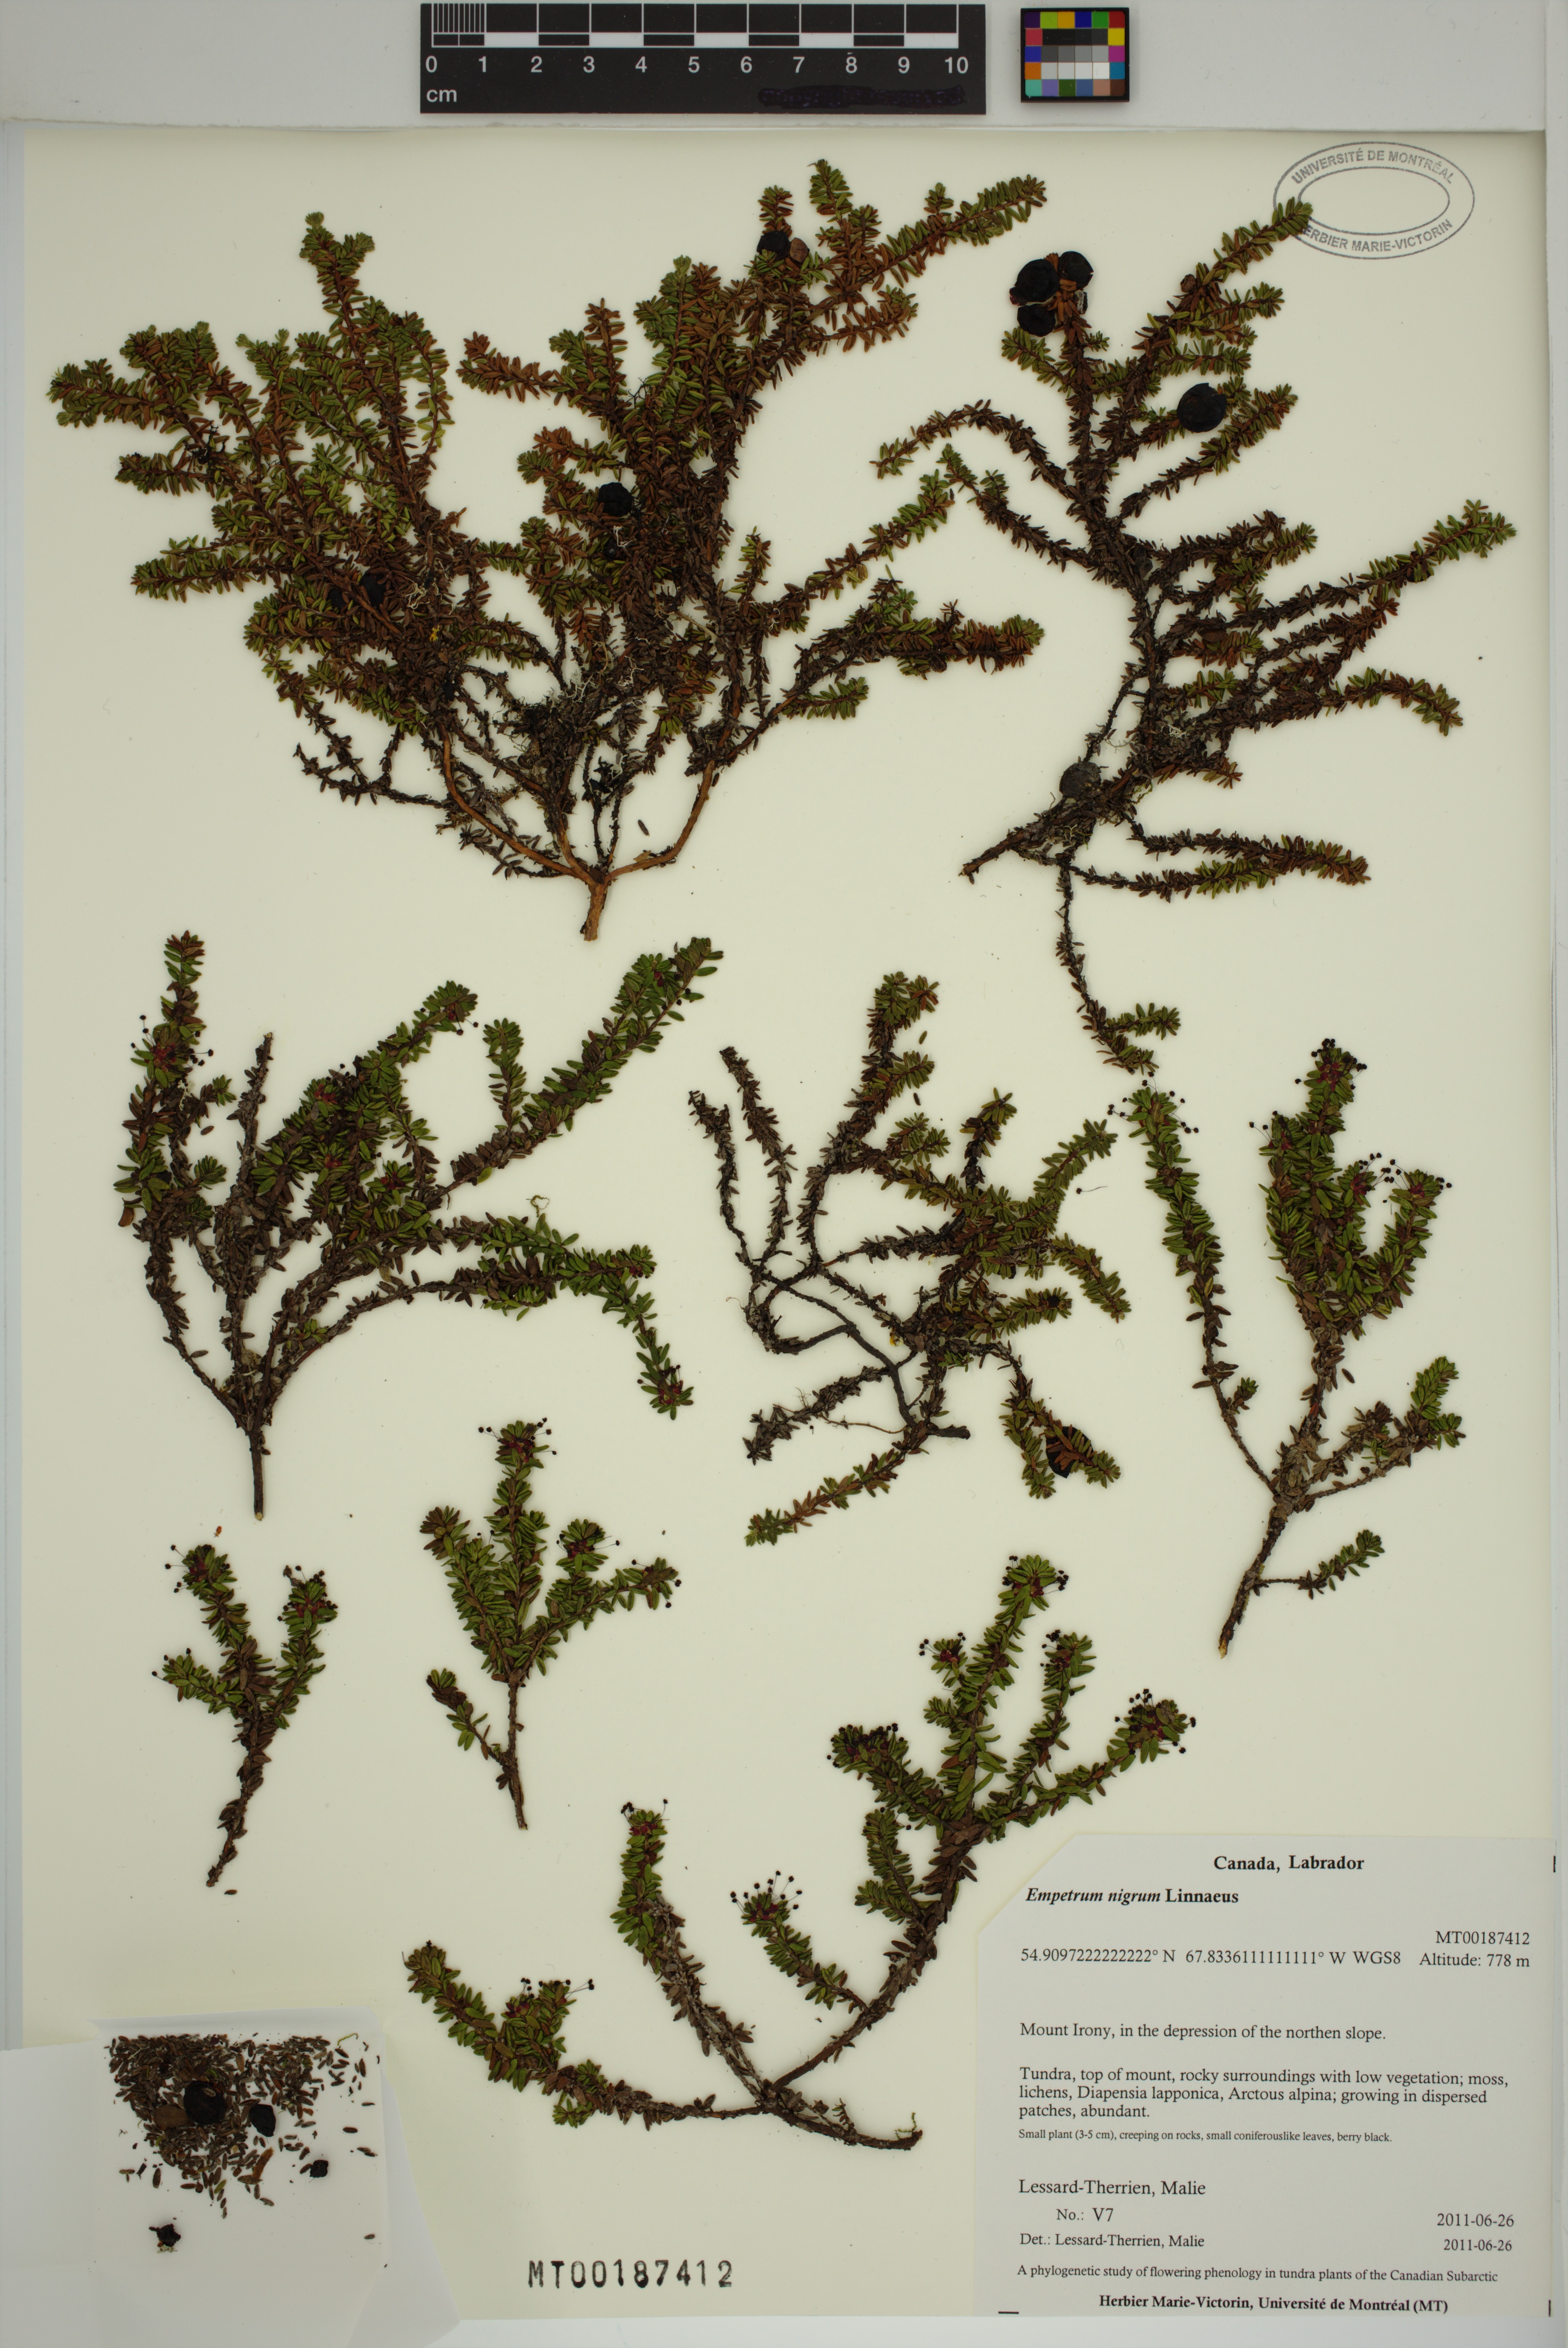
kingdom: Plantae
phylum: Tracheophyta
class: Magnoliopsida
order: Ericales
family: Ericaceae
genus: Empetrum
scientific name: Empetrum nigrum
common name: Black crowberry
